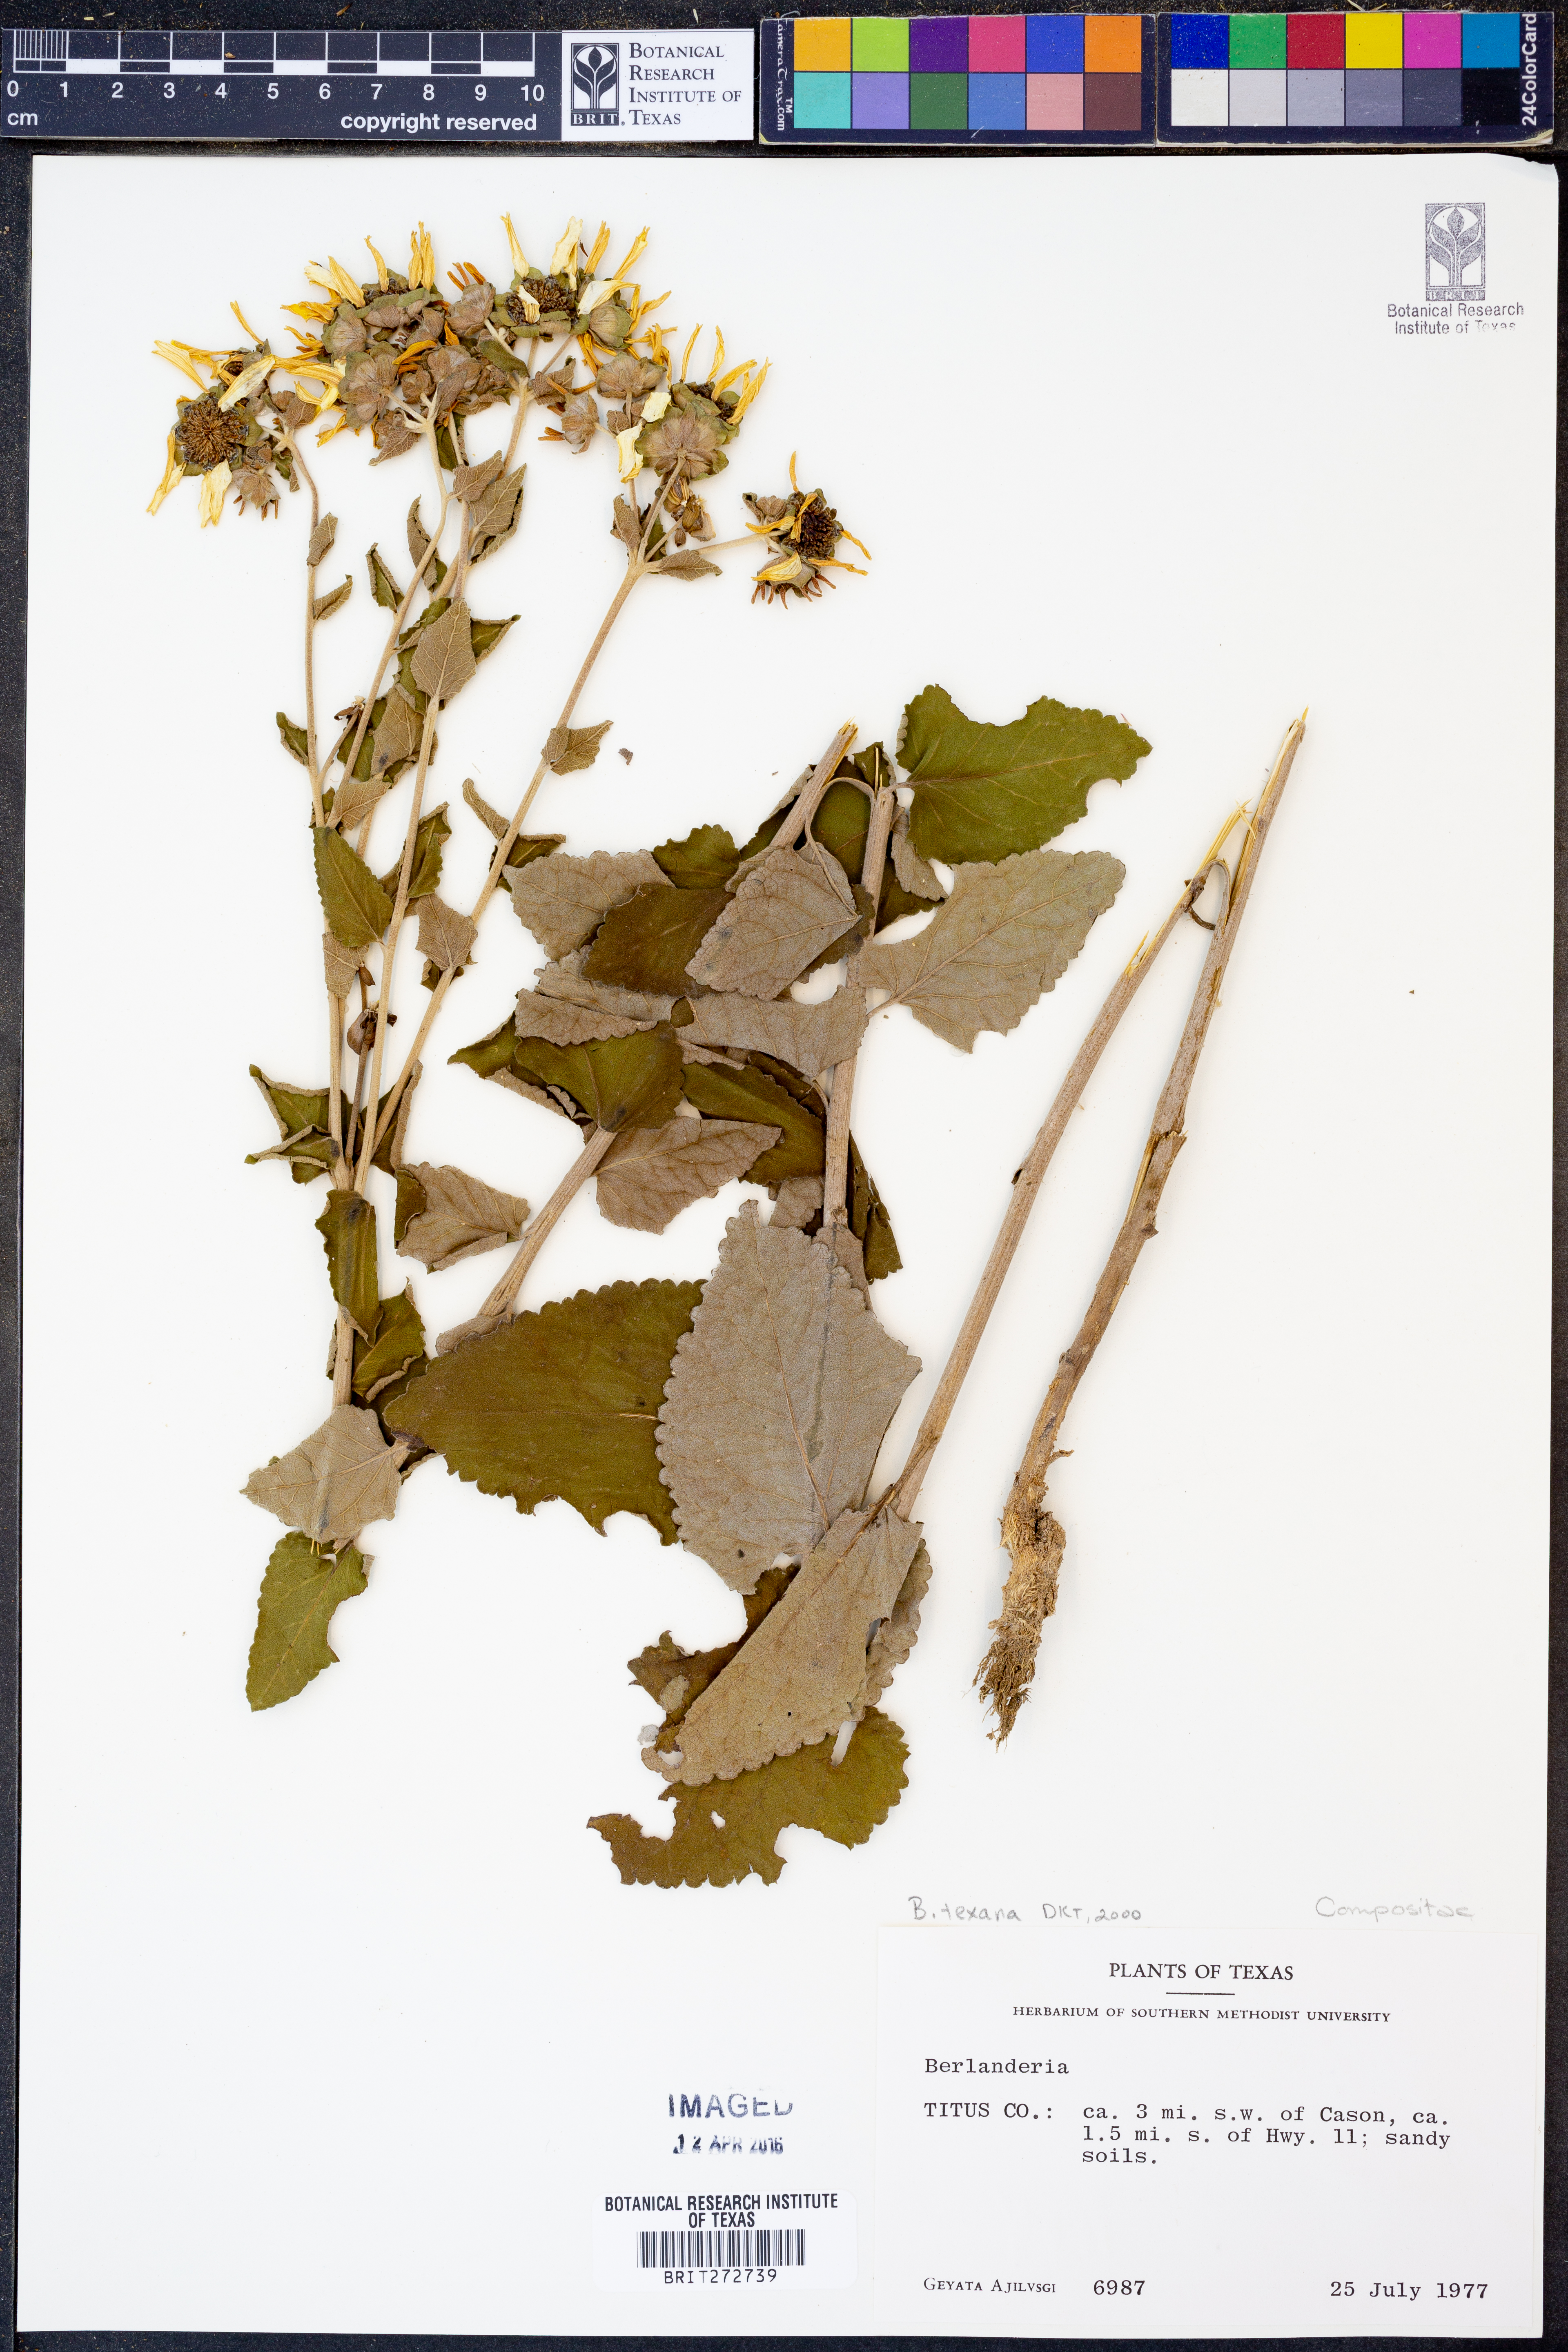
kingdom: Plantae
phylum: Tracheophyta
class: Magnoliopsida
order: Asterales
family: Asteraceae
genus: Berlandiera
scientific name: Berlandiera texana
